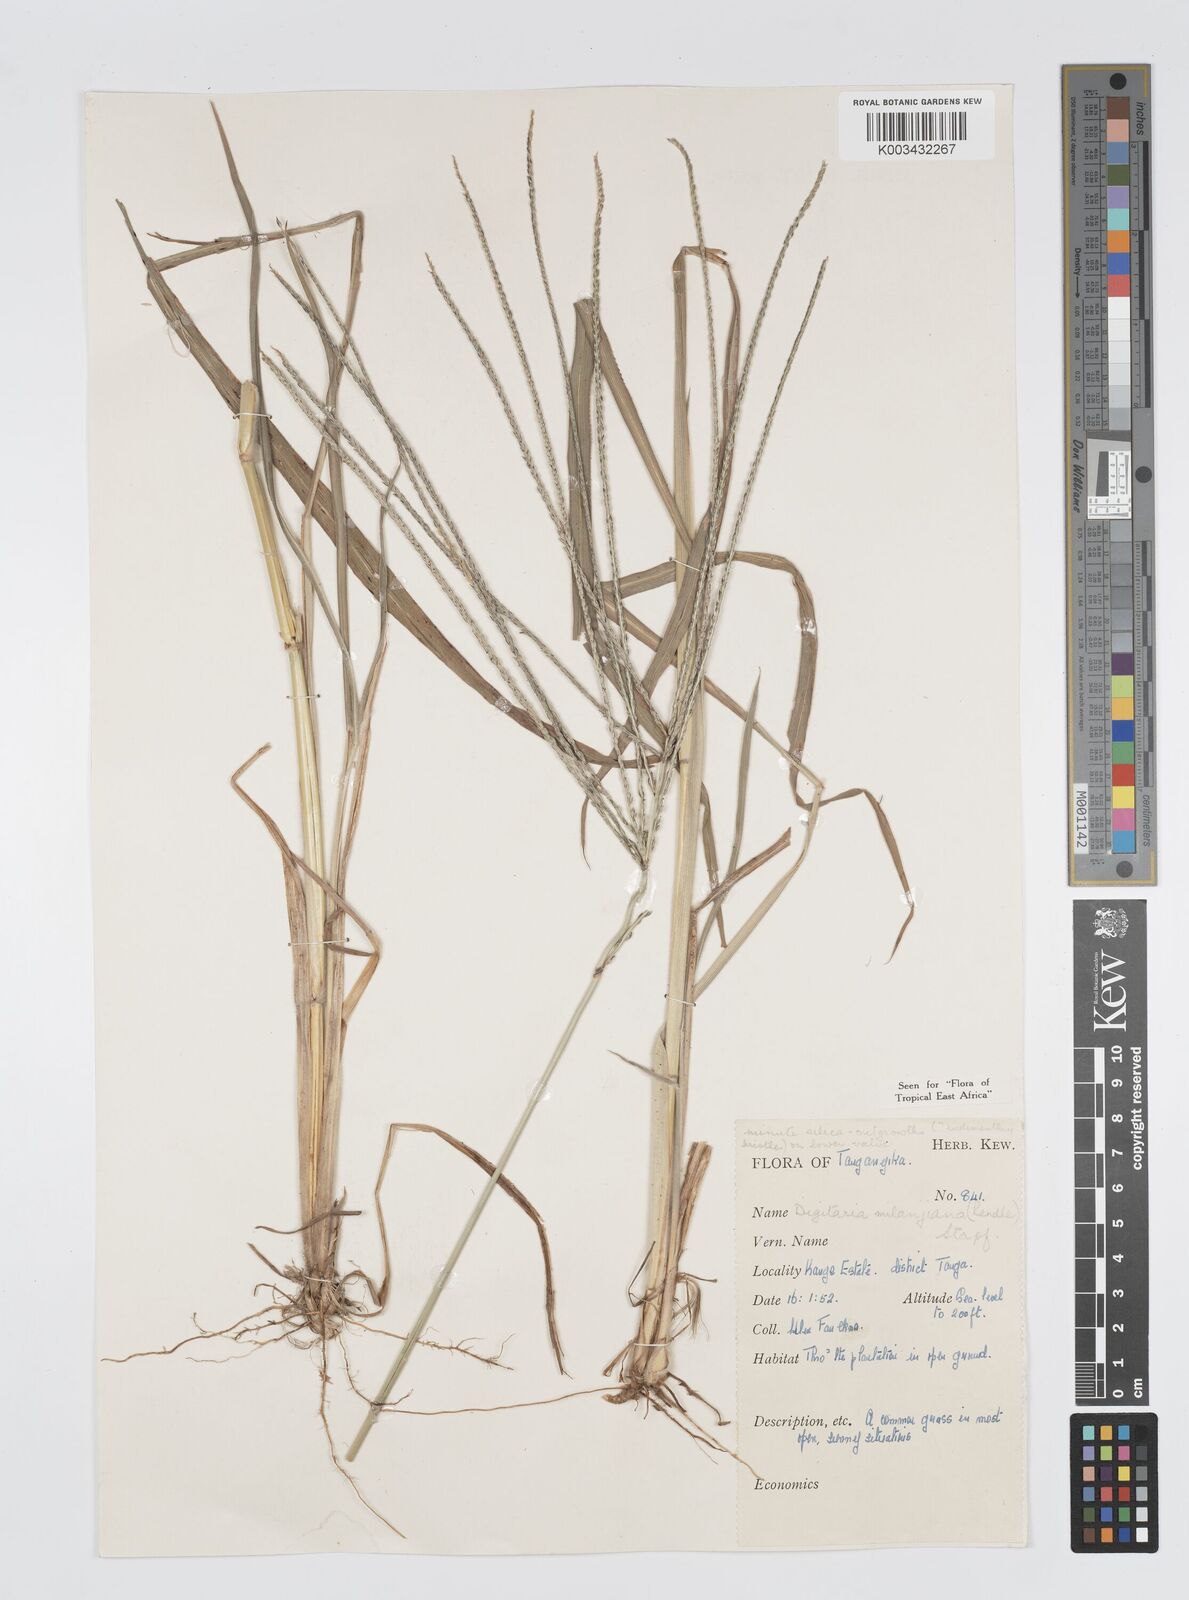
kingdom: Plantae
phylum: Tracheophyta
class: Liliopsida
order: Poales
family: Poaceae
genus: Digitaria
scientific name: Digitaria milanjiana
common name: Madagascar crabgrass
